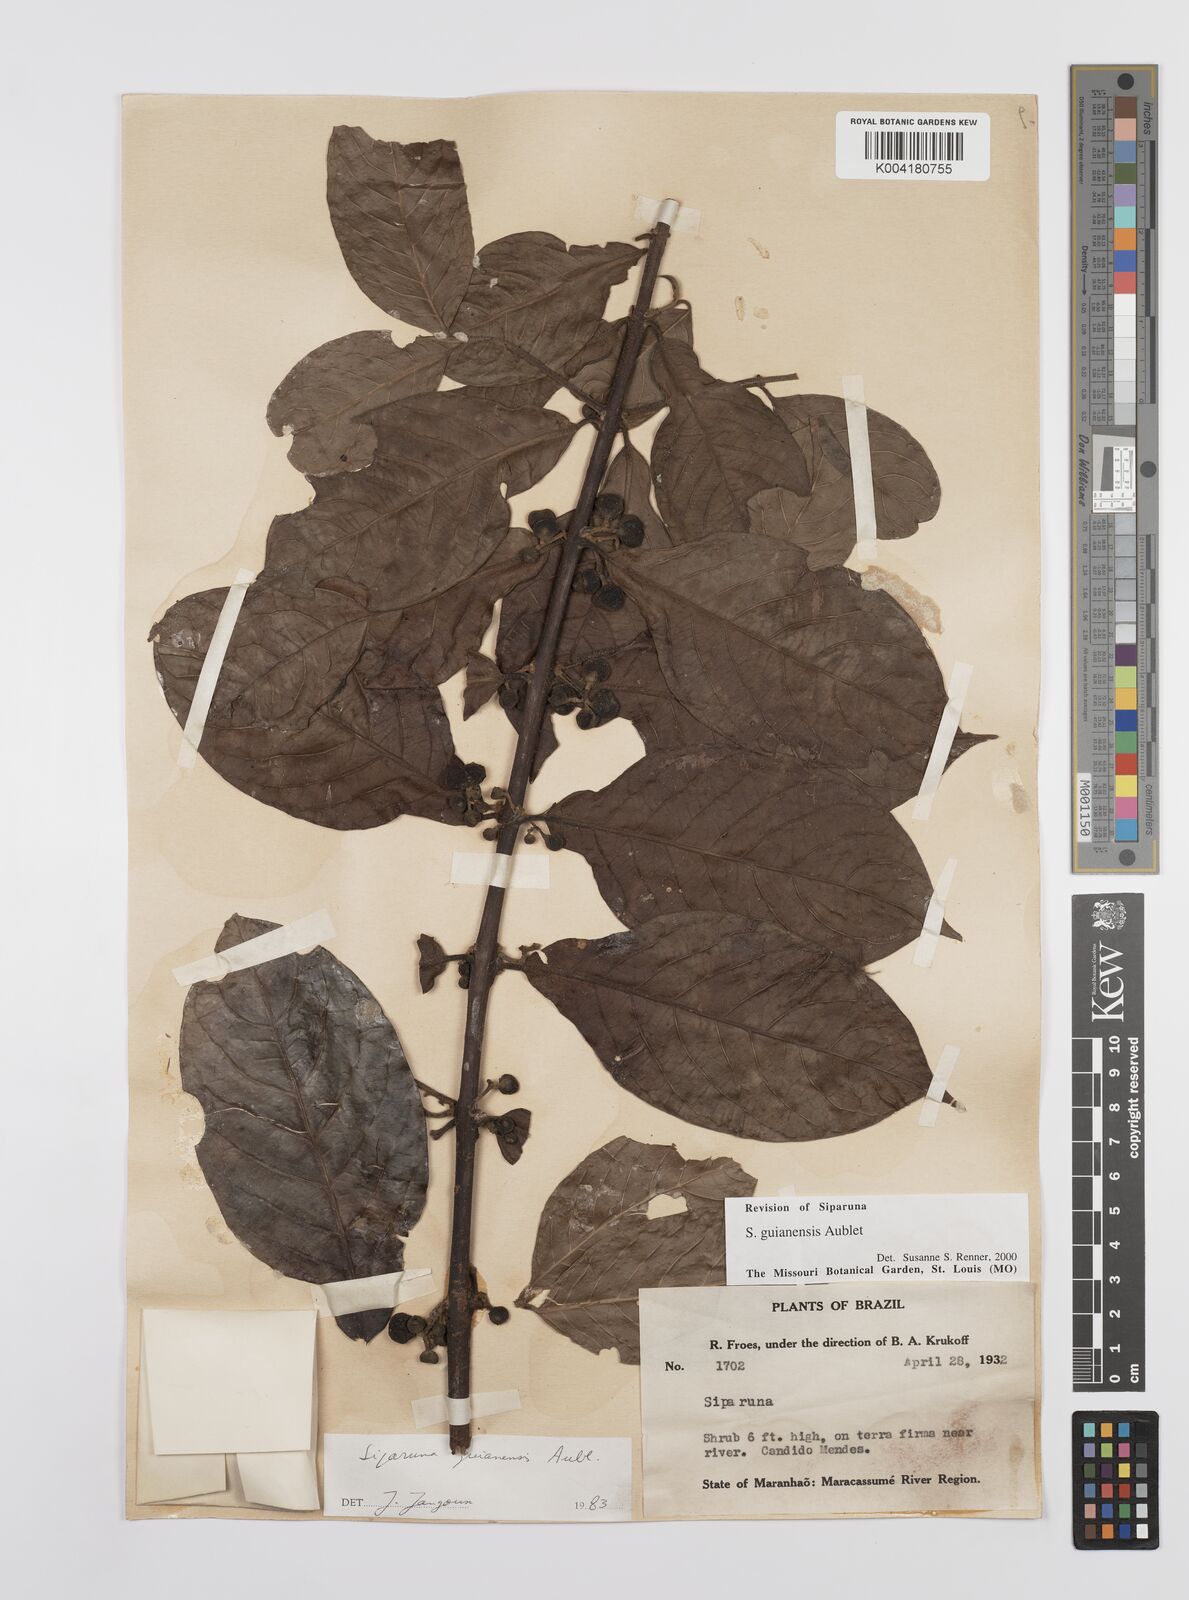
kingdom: Plantae
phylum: Tracheophyta
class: Magnoliopsida
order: Laurales
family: Siparunaceae
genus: Siparuna
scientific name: Siparuna guianensis
